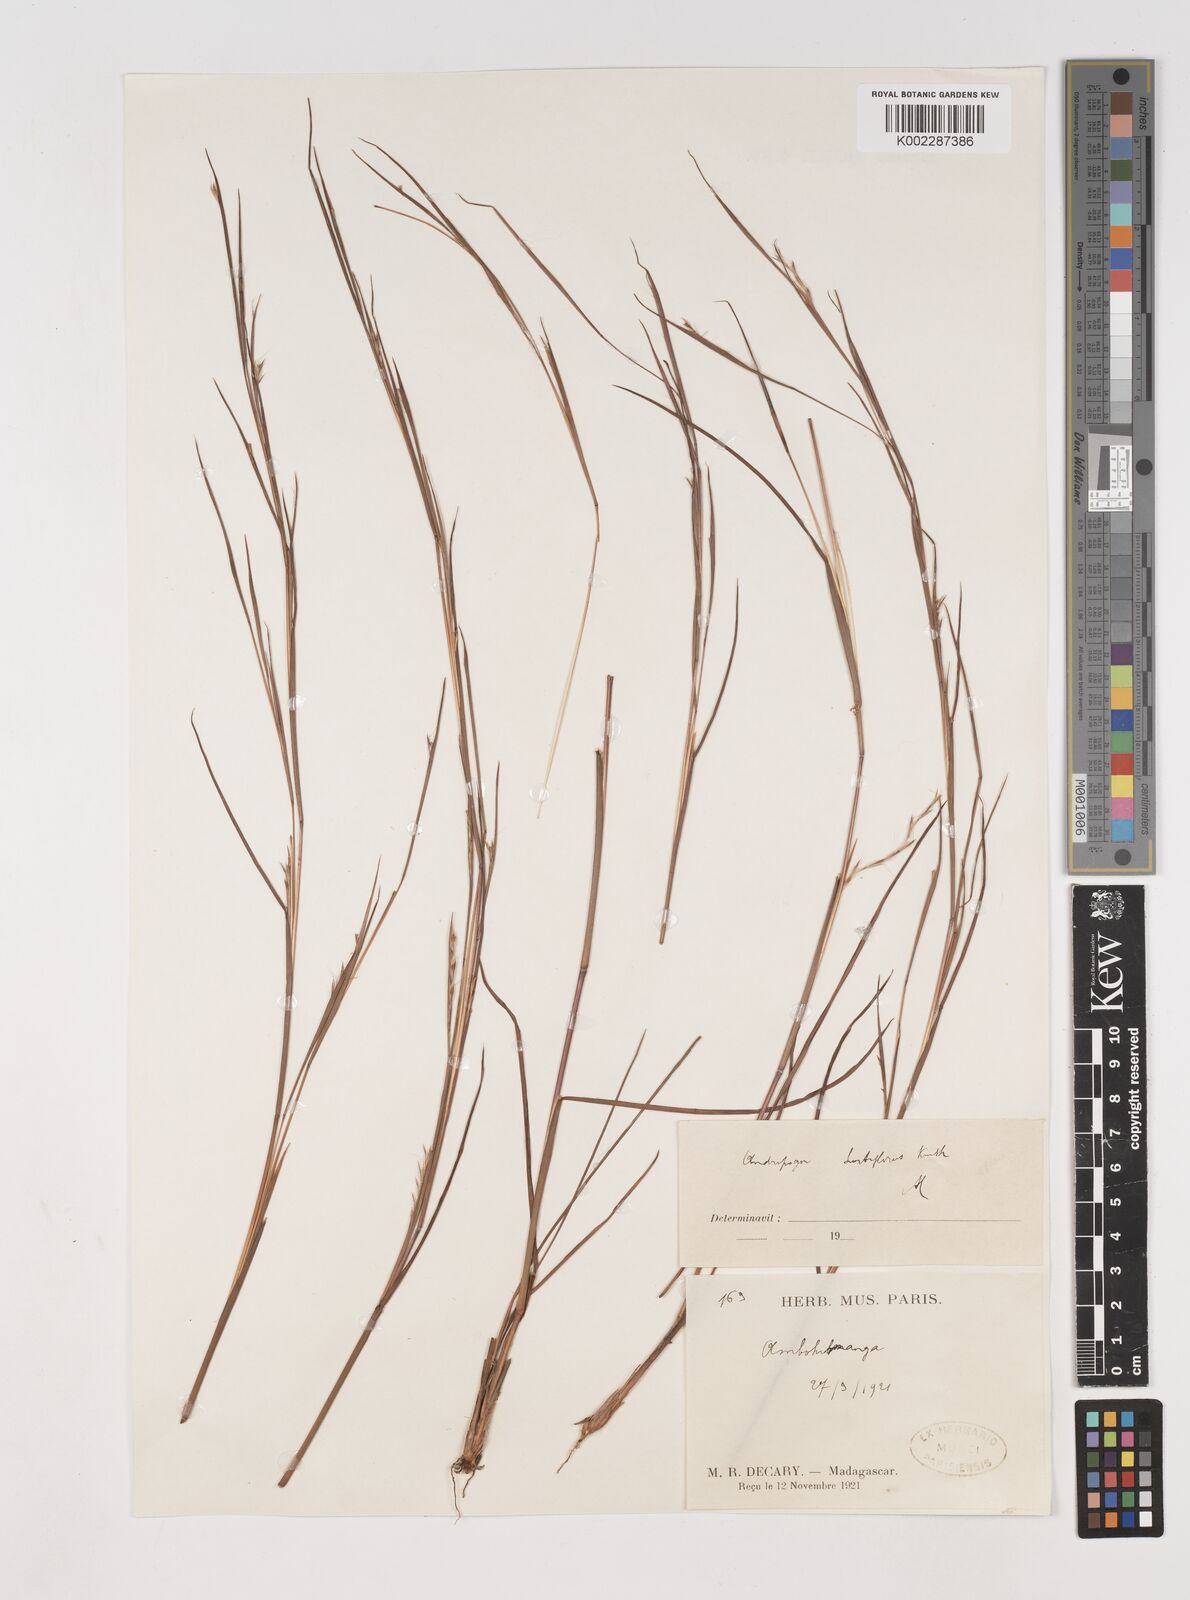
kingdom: Plantae
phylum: Tracheophyta
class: Liliopsida
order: Poales
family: Poaceae
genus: Schizachyrium
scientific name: Schizachyrium sanguineum
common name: Crimson bluestem
